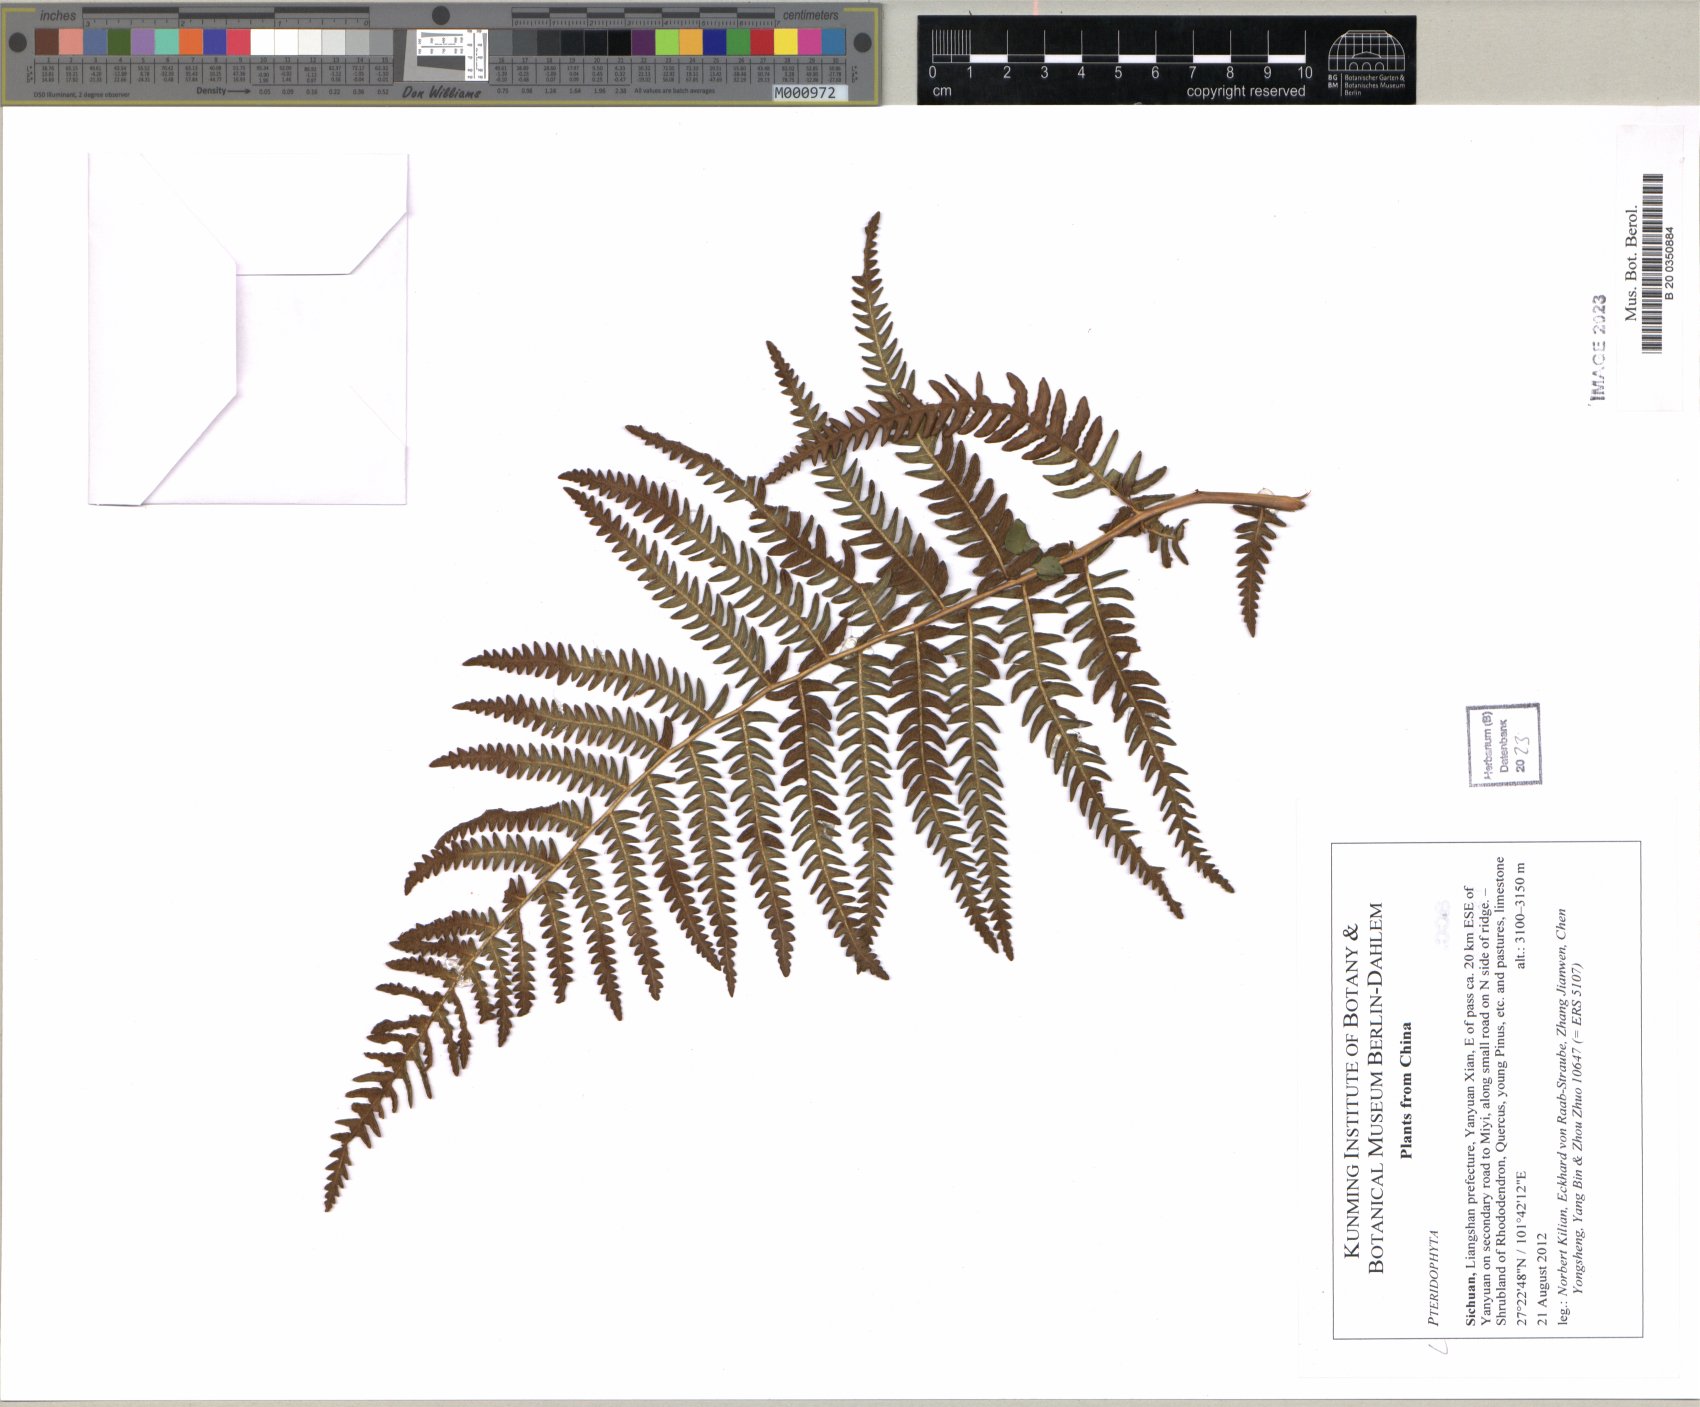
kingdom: Plantae
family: Pteridophyta
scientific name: Pteridophyta
